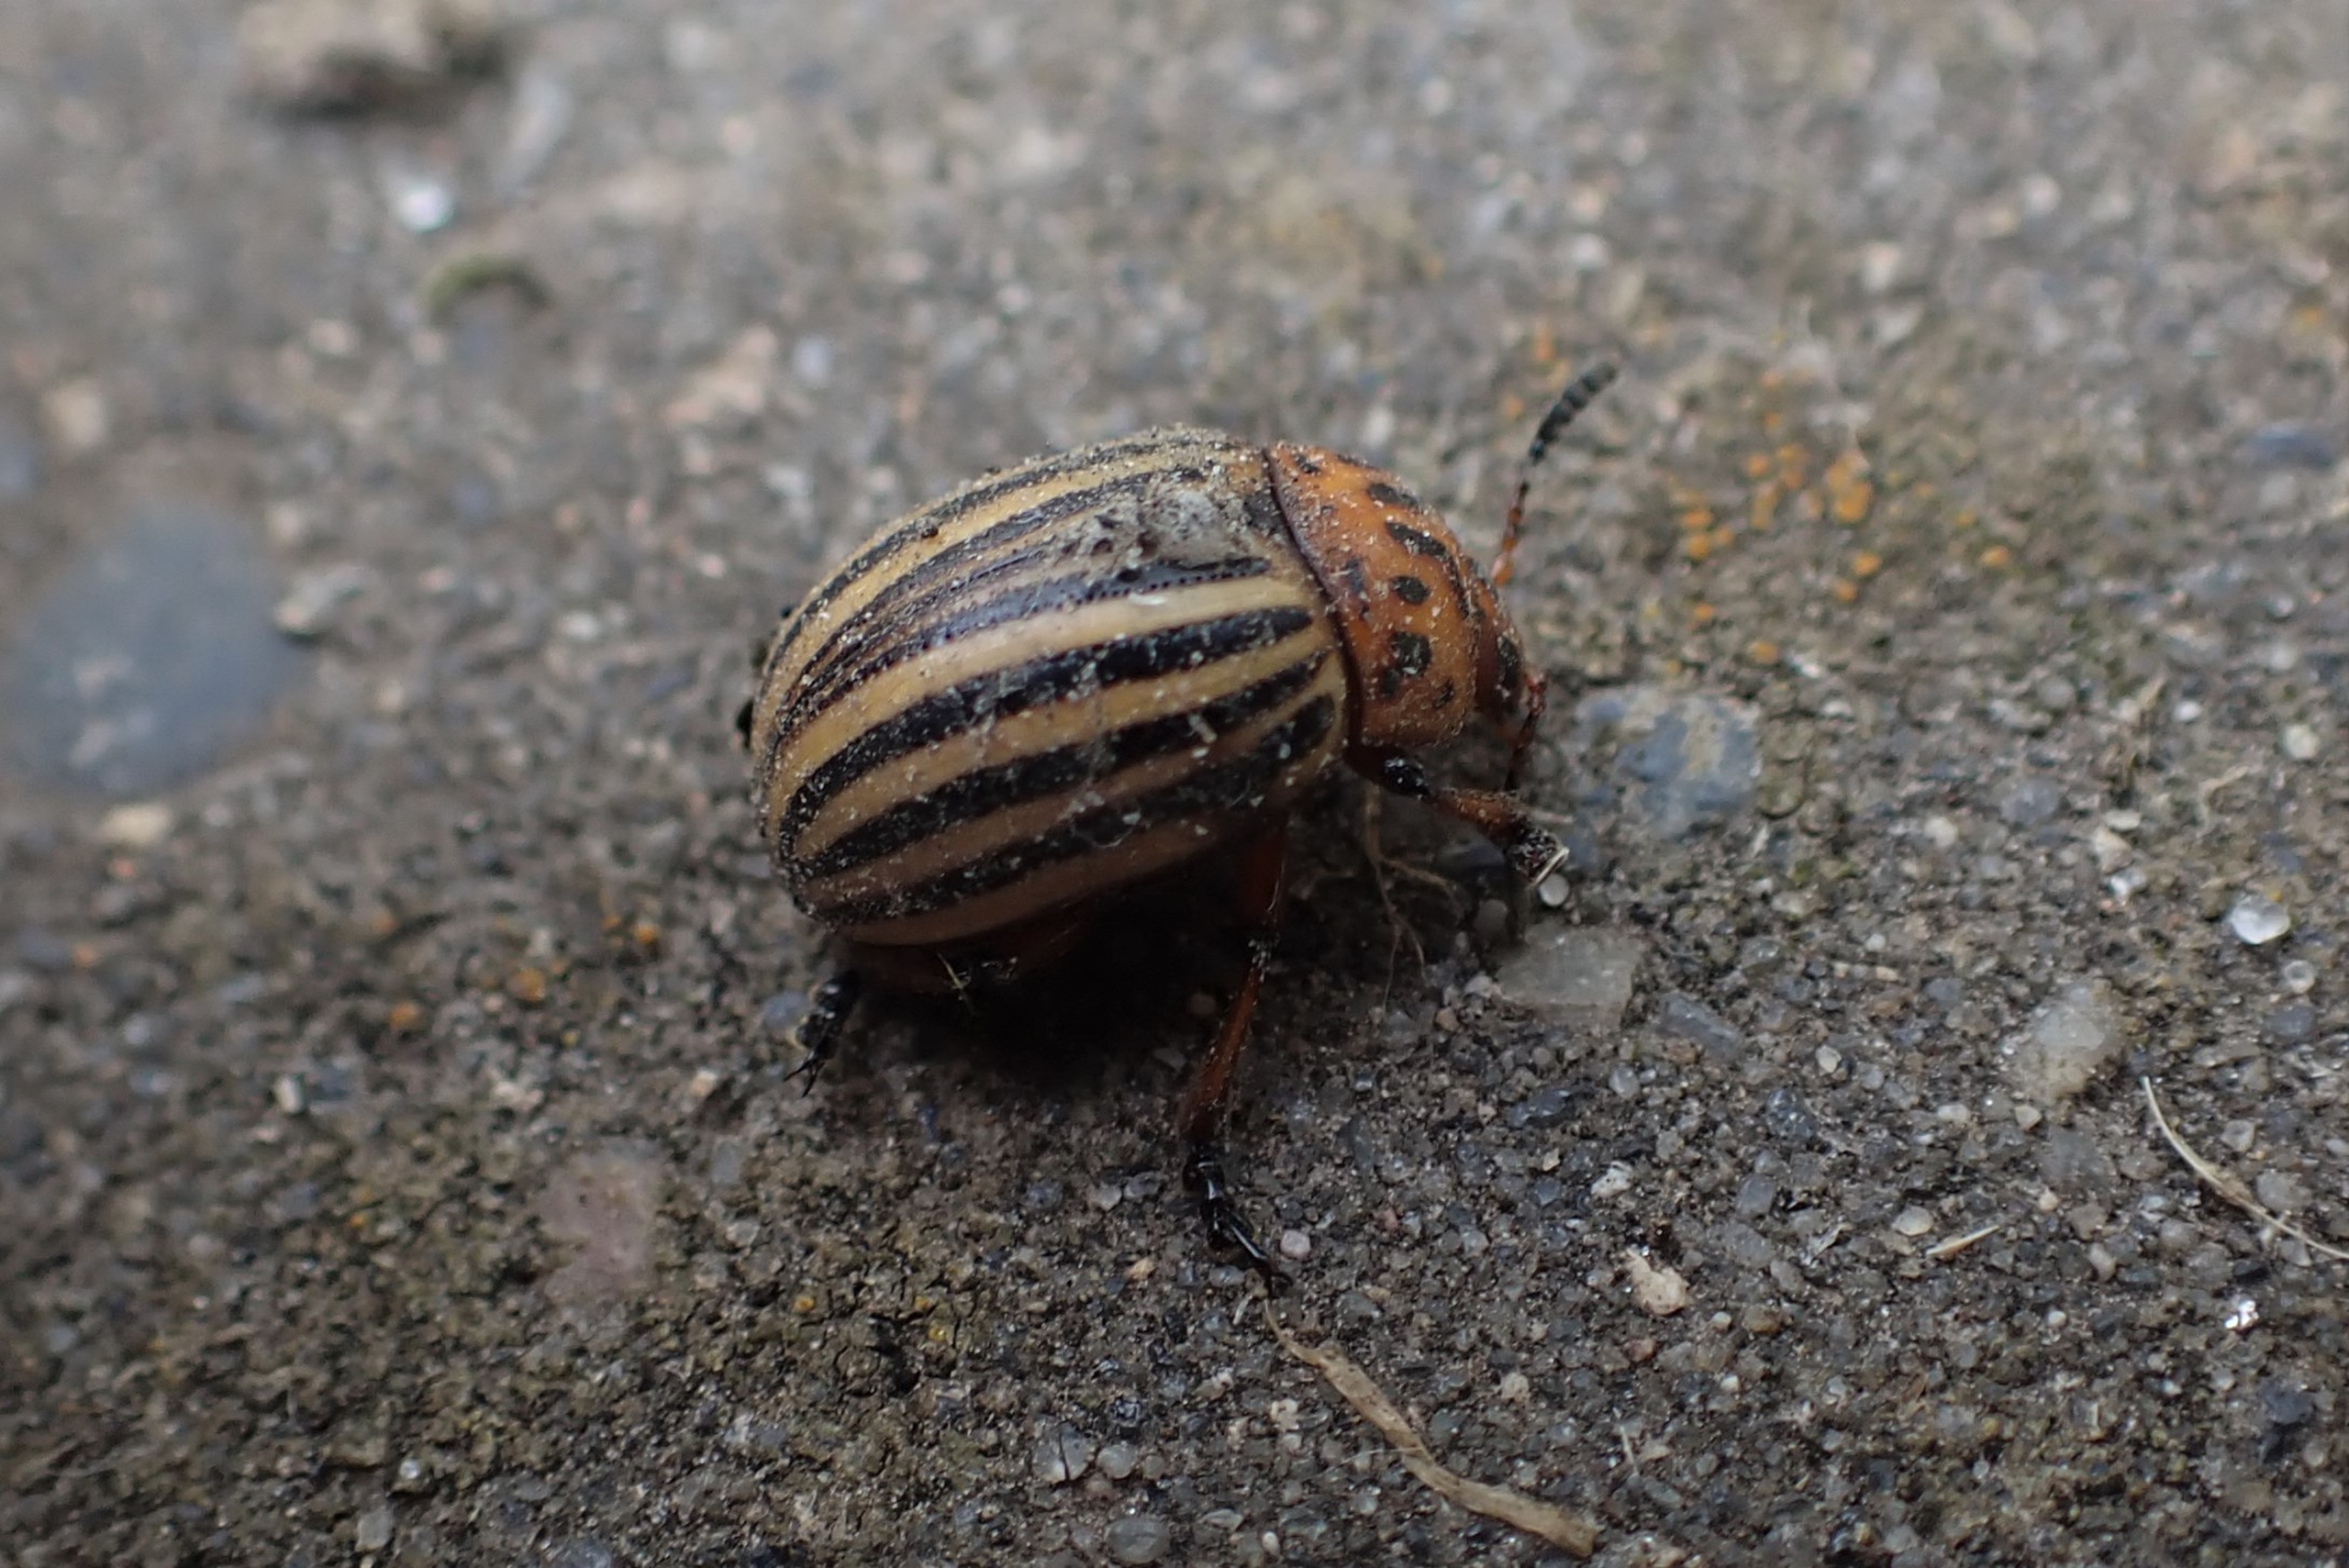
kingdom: Animalia
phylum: Arthropoda
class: Insecta
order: Coleoptera
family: Chrysomelidae
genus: Leptinotarsa
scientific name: Leptinotarsa decemlineata
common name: Coloradobille
